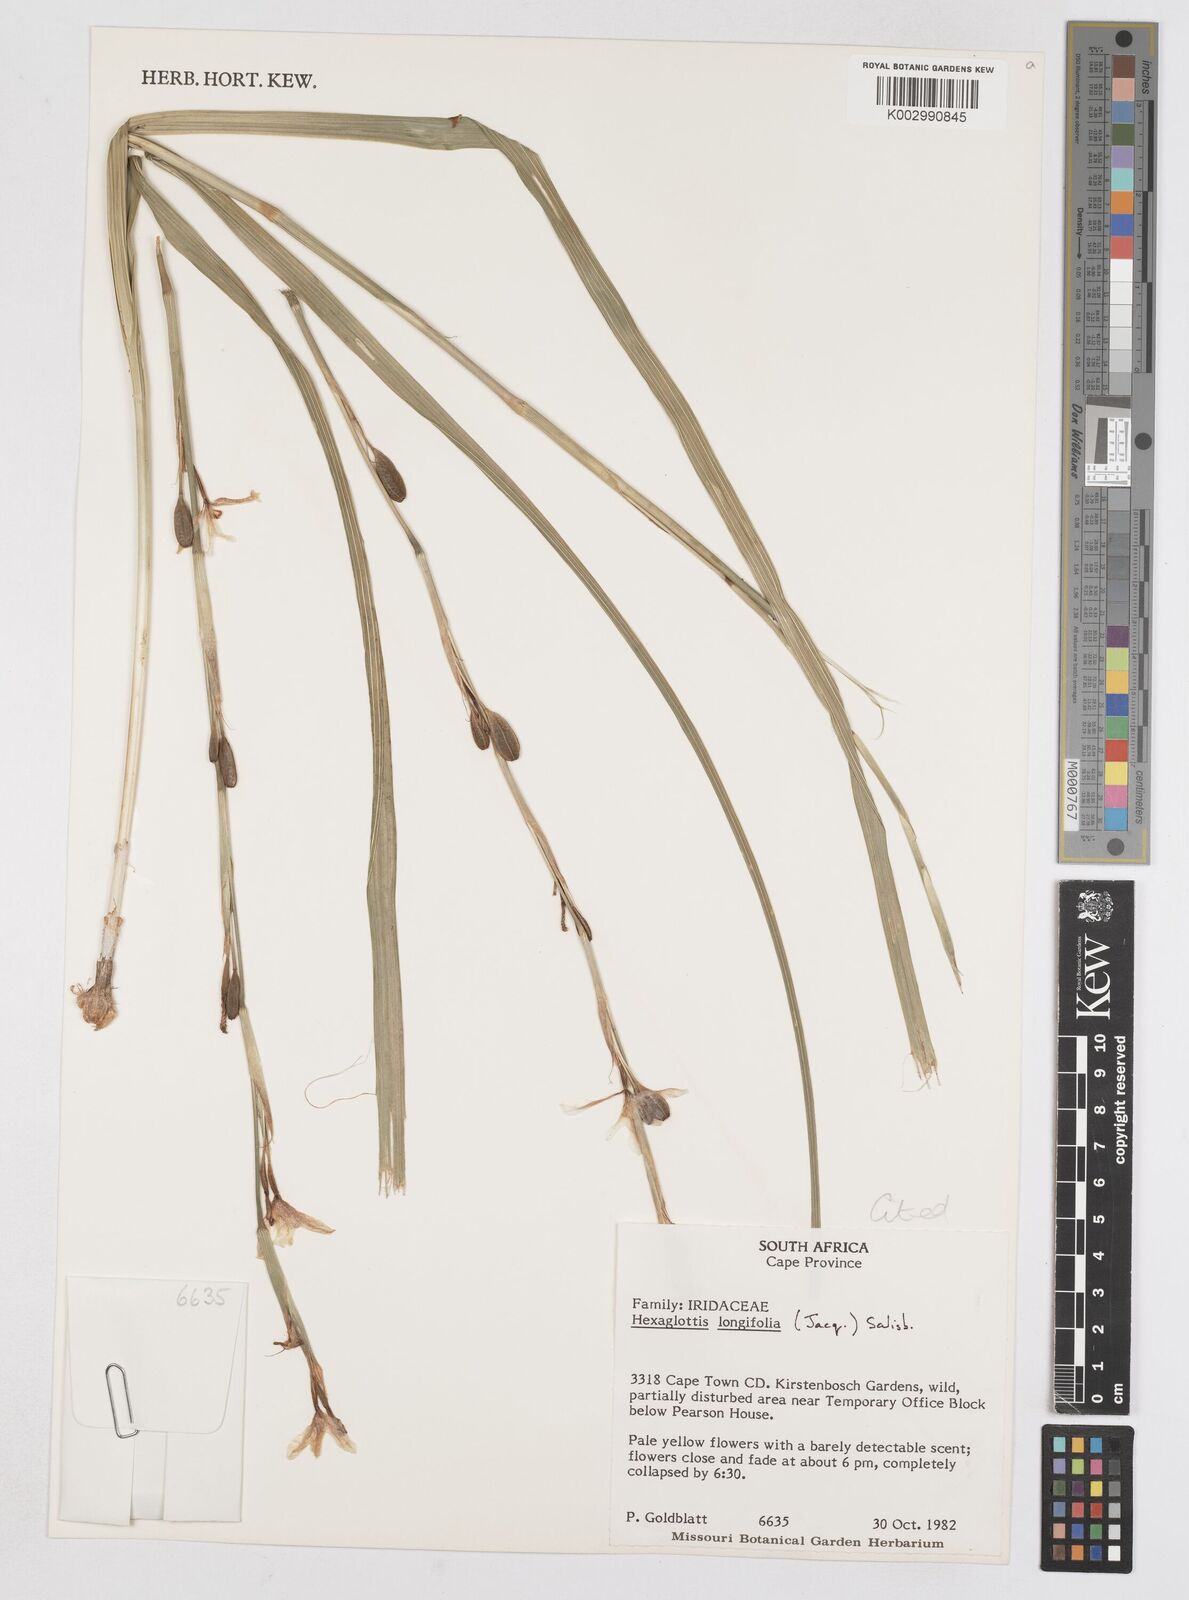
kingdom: Plantae
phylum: Tracheophyta
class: Liliopsida
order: Asparagales
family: Iridaceae
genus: Moraea
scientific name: Moraea
